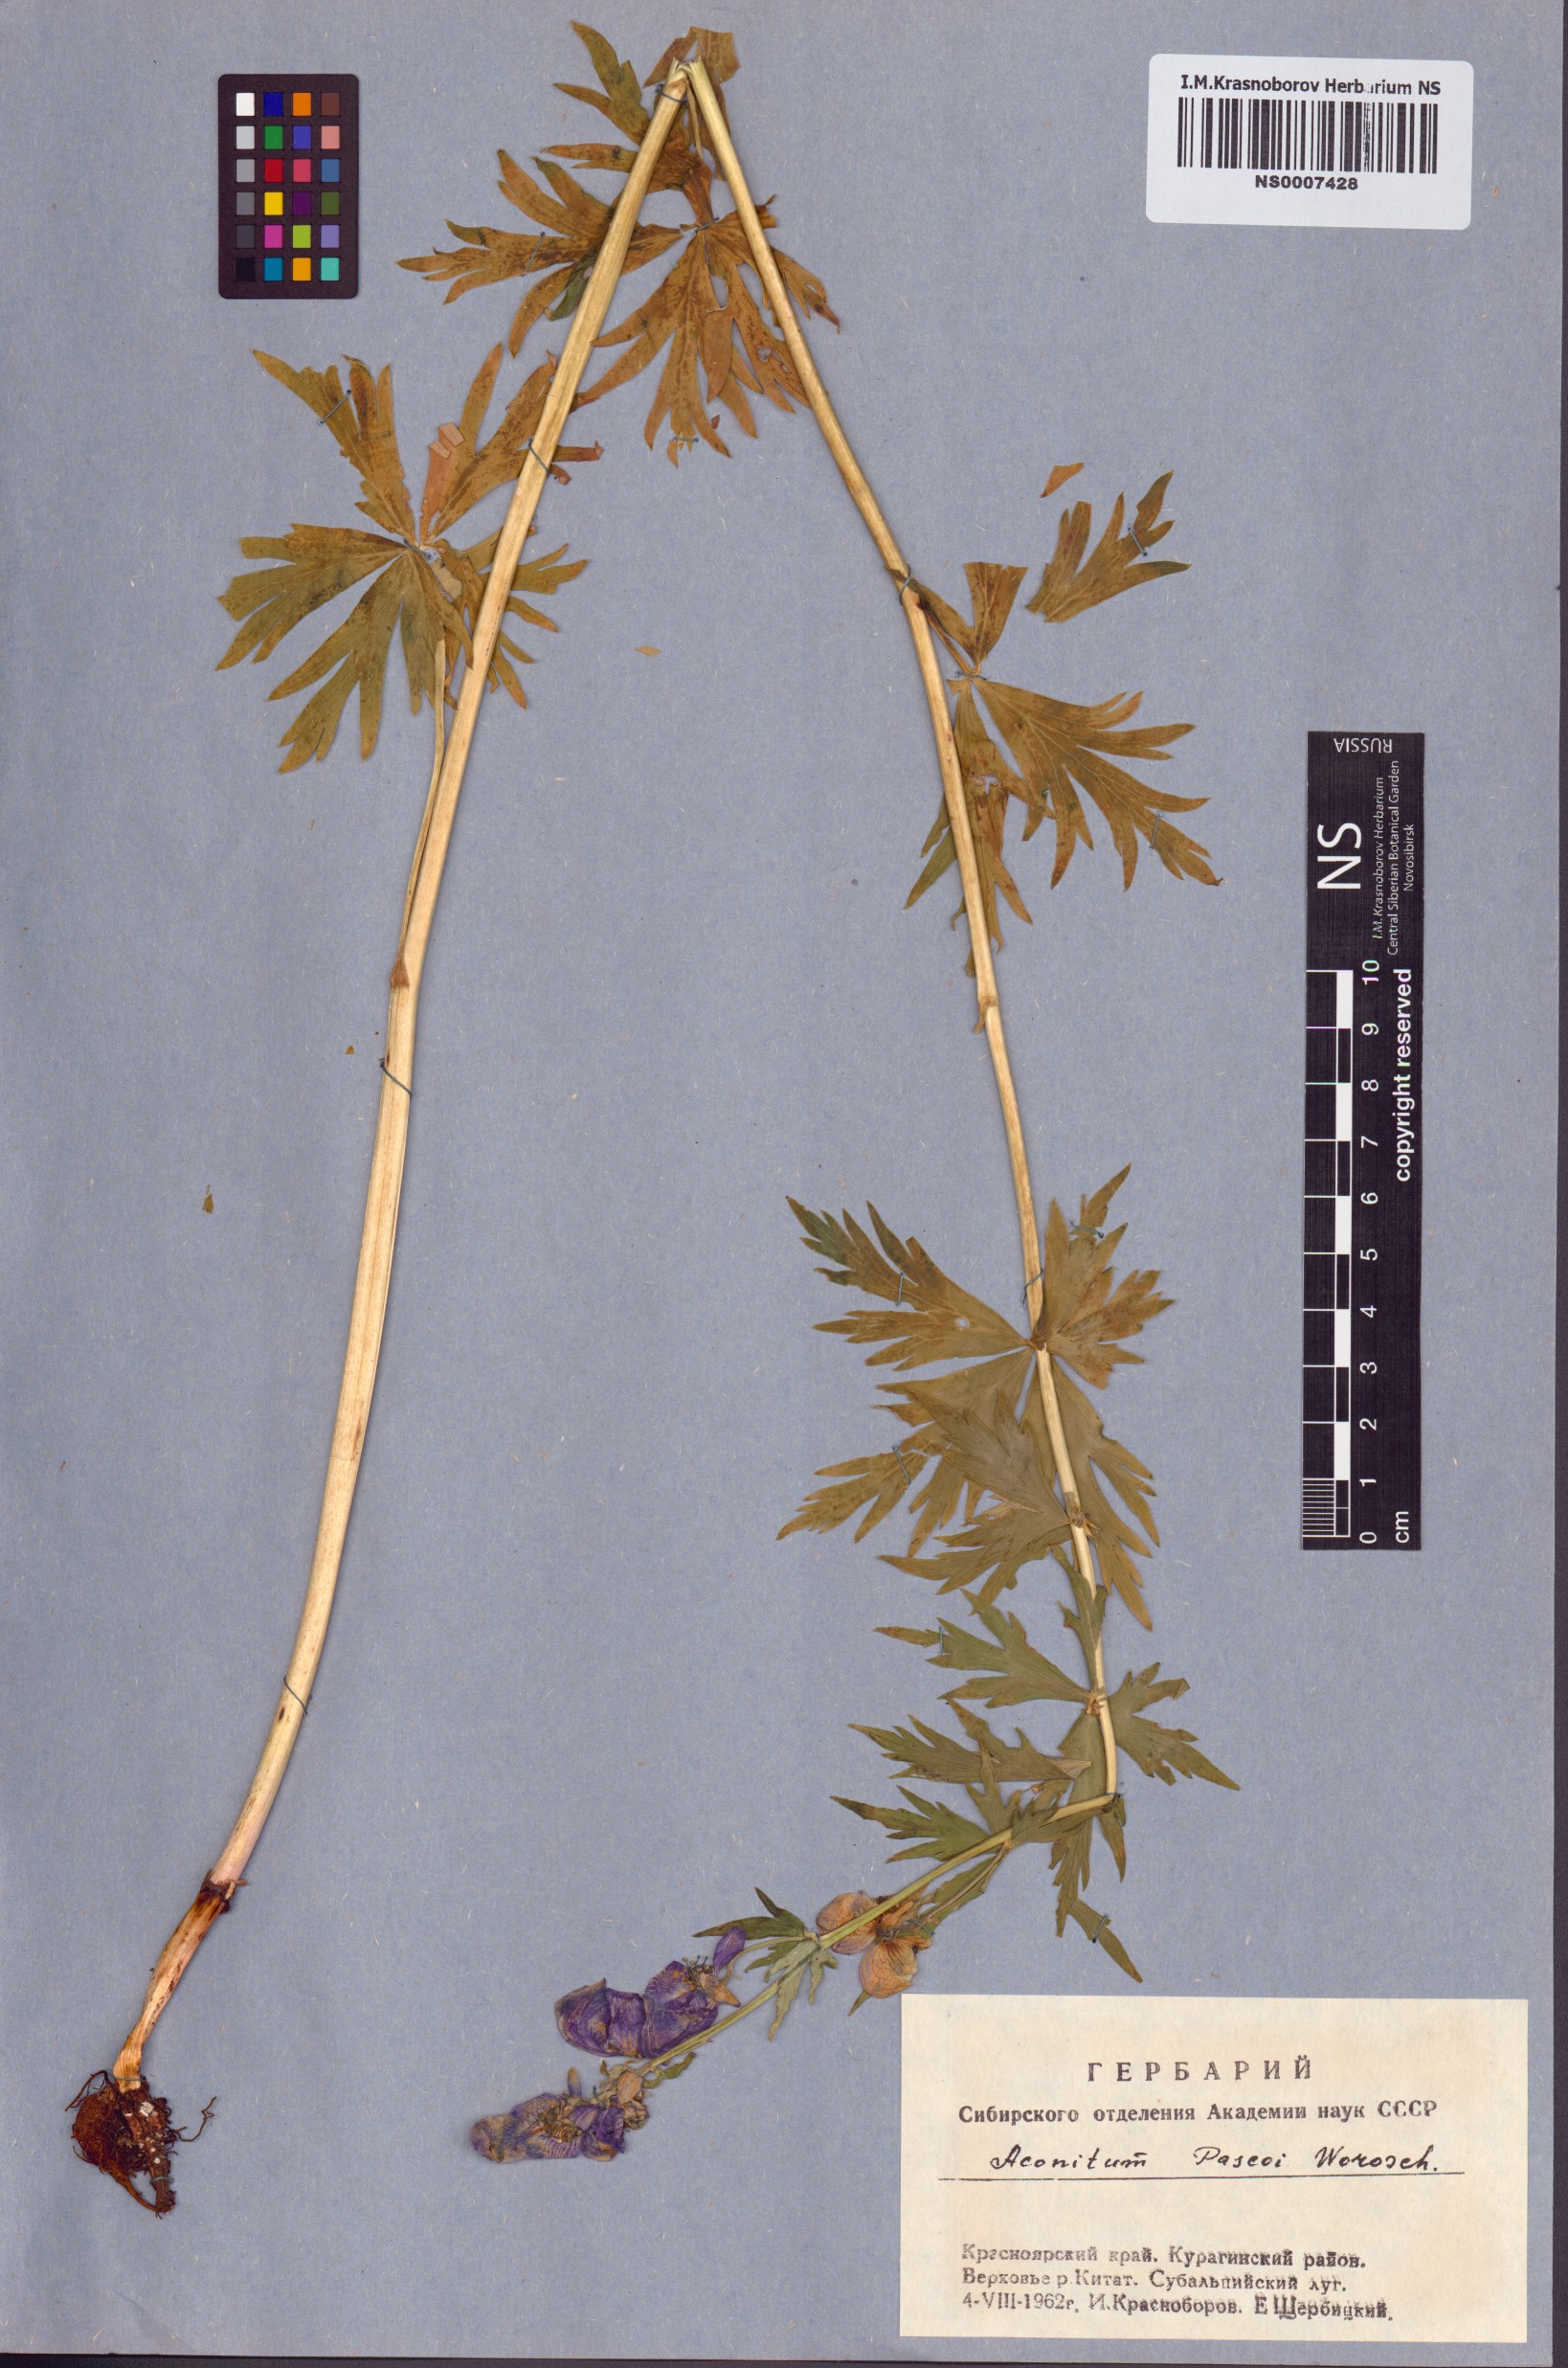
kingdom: Plantae
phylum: Tracheophyta
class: Magnoliopsida
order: Ranunculales
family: Ranunculaceae
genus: Aconitum
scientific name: Aconitum pascoi
